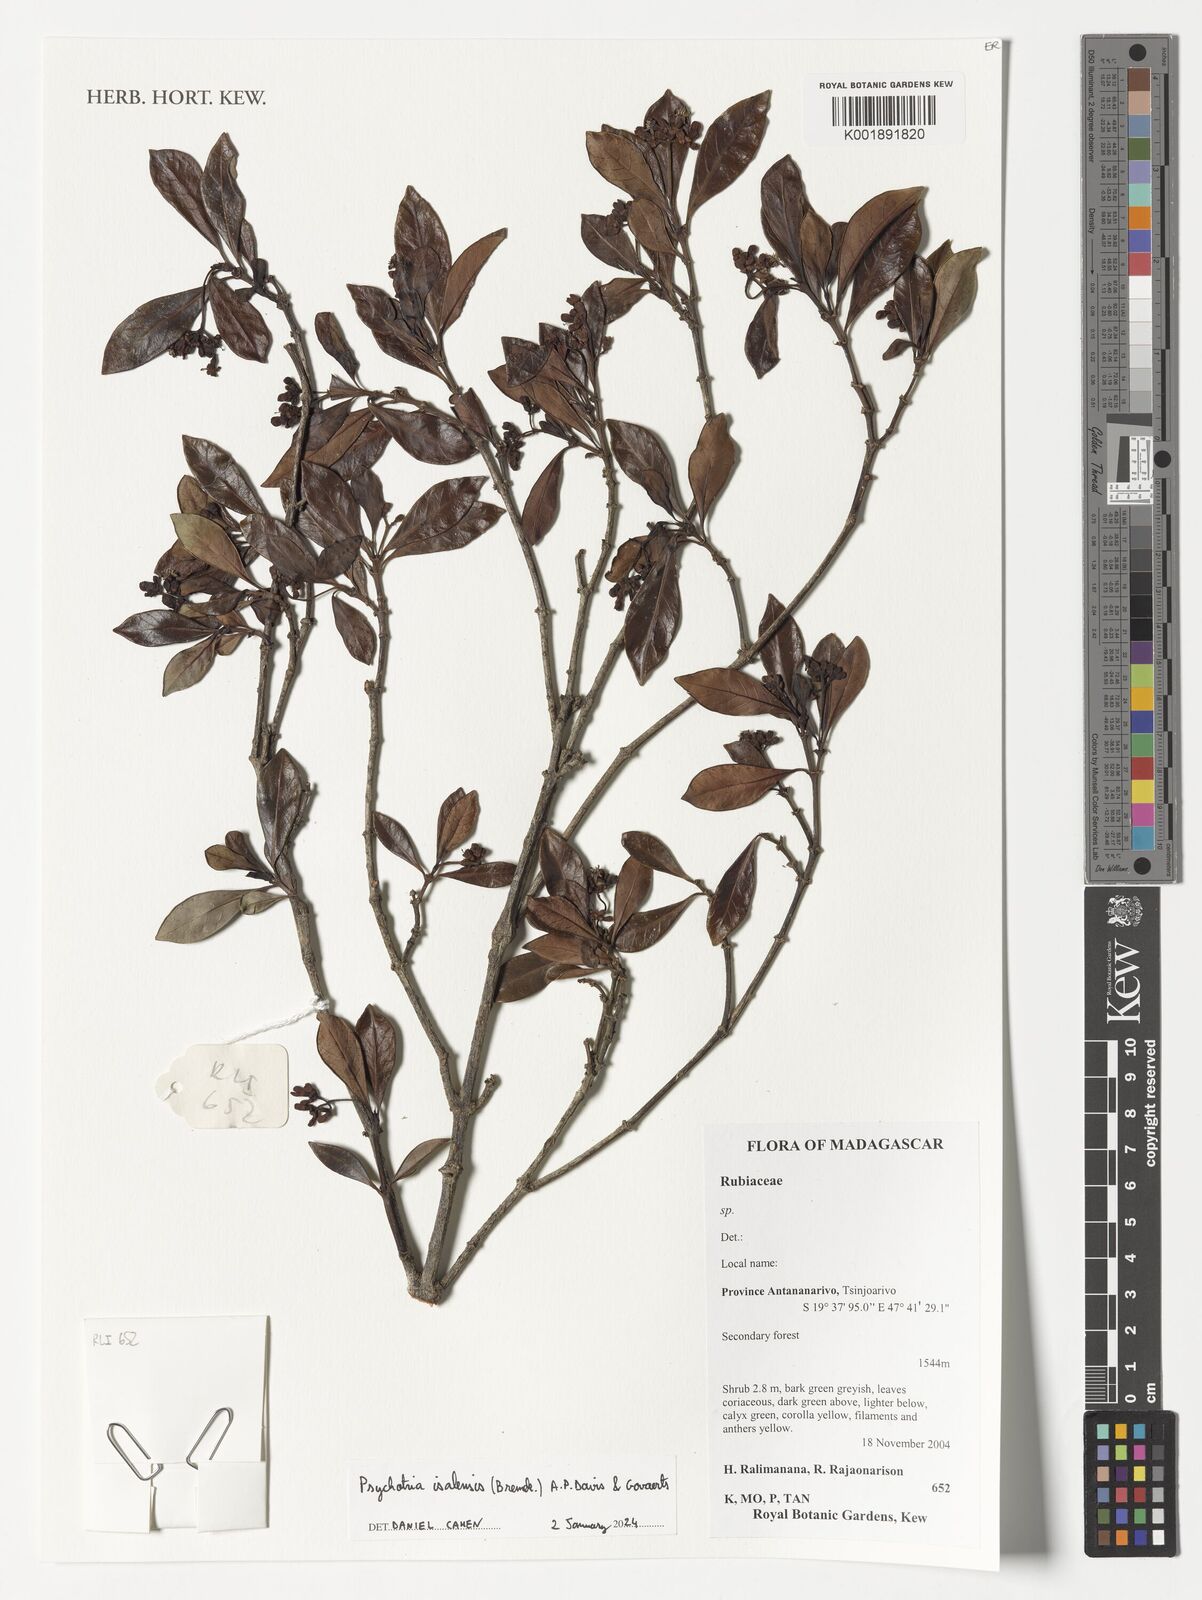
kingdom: Plantae
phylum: Tracheophyta
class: Magnoliopsida
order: Gentianales
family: Rubiaceae
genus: Psychotria
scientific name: Psychotria isalensis
